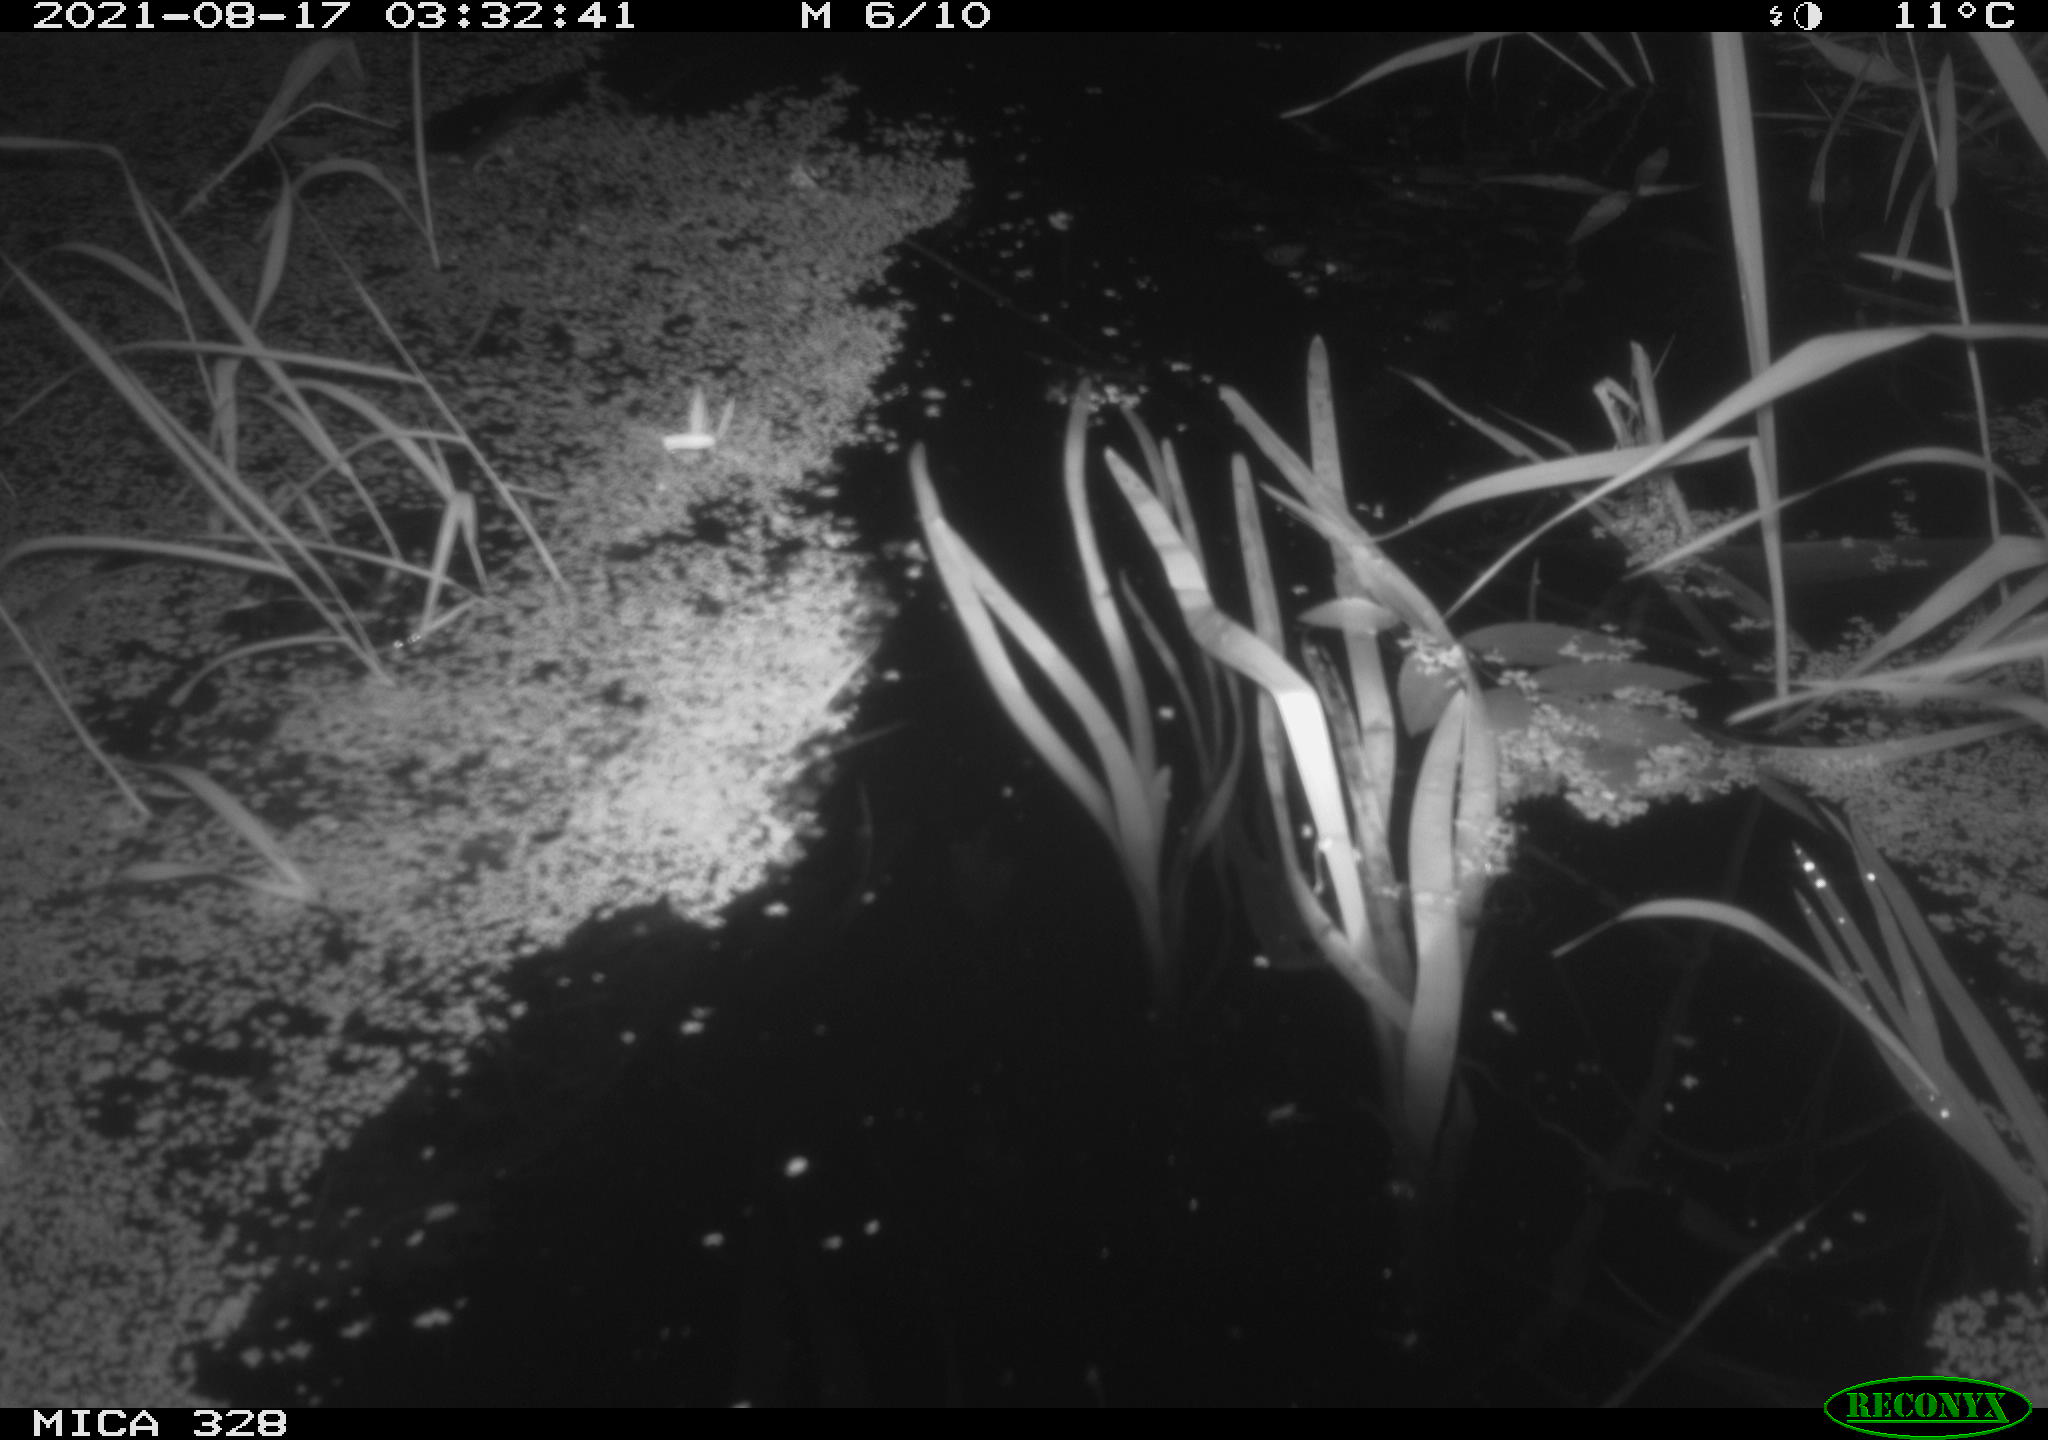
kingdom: Animalia
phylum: Chordata
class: Mammalia
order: Rodentia
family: Cricetidae
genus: Ondatra
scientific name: Ondatra zibethicus
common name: Muskrat
